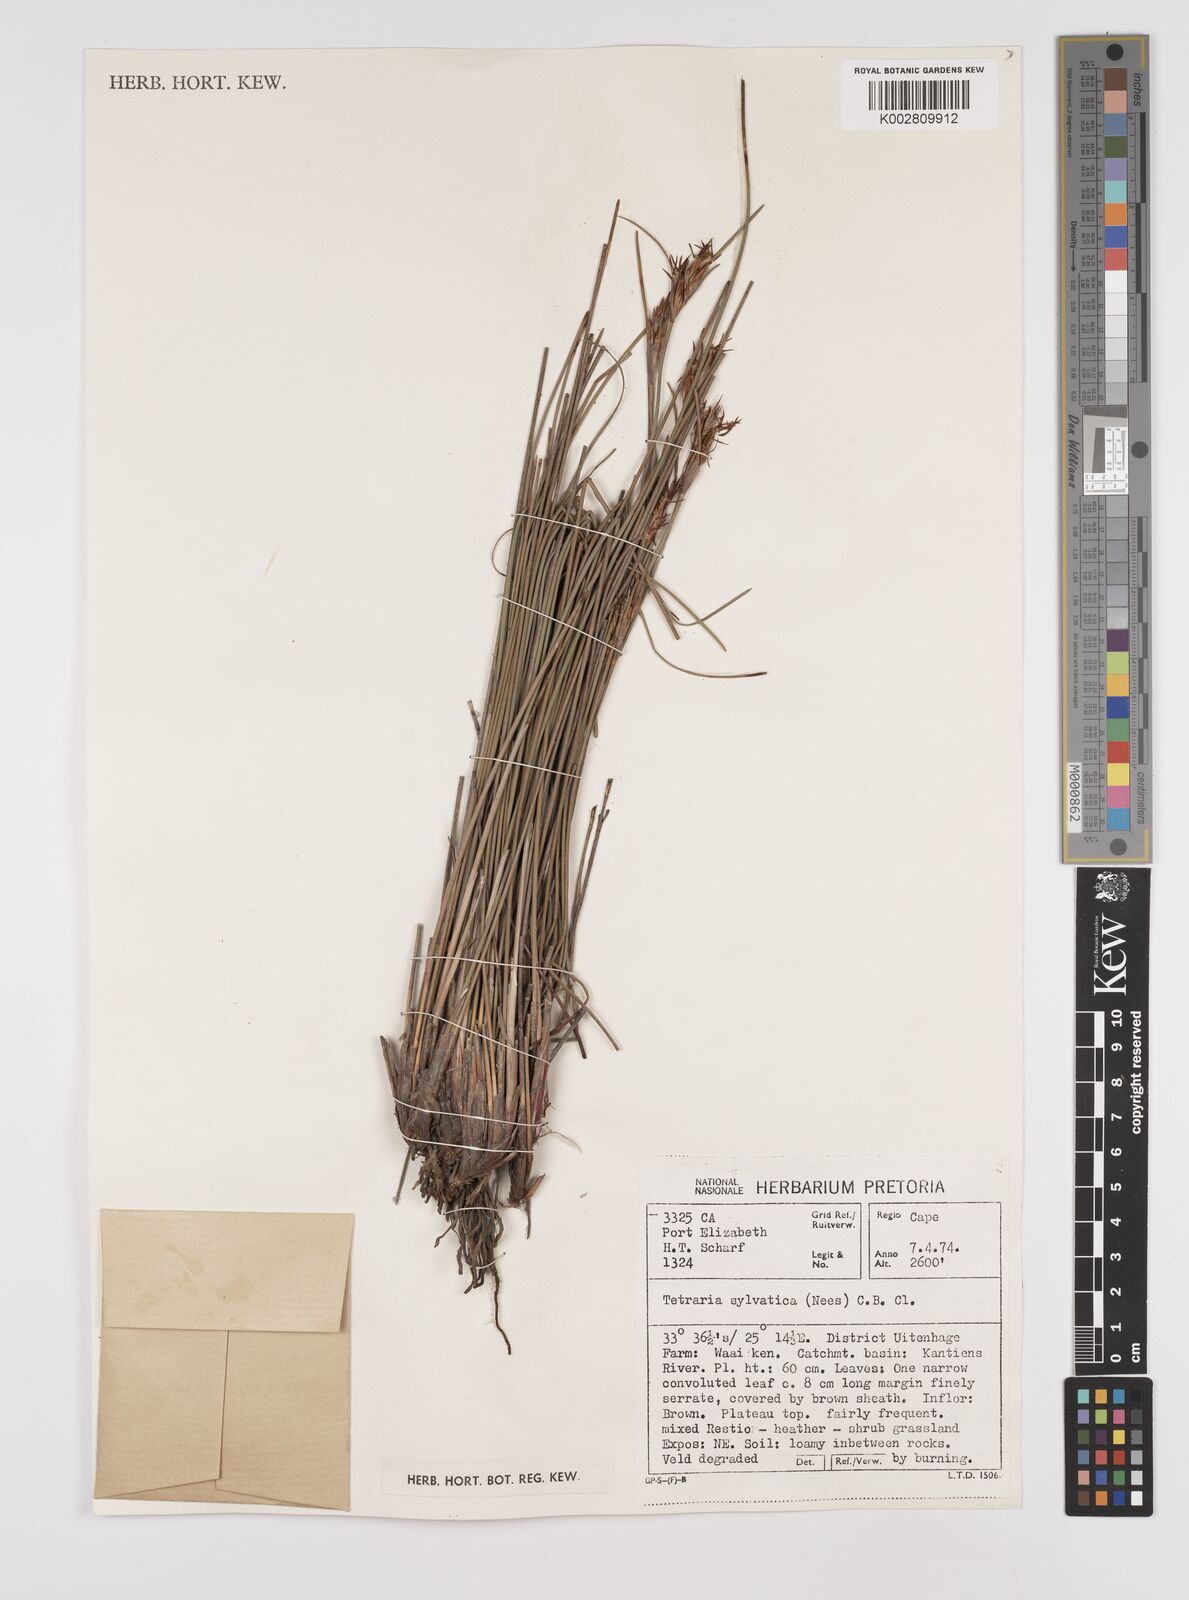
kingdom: Plantae
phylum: Tracheophyta
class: Liliopsida
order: Poales
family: Cyperaceae
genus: Schoenus
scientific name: Schoenus megacarpus
